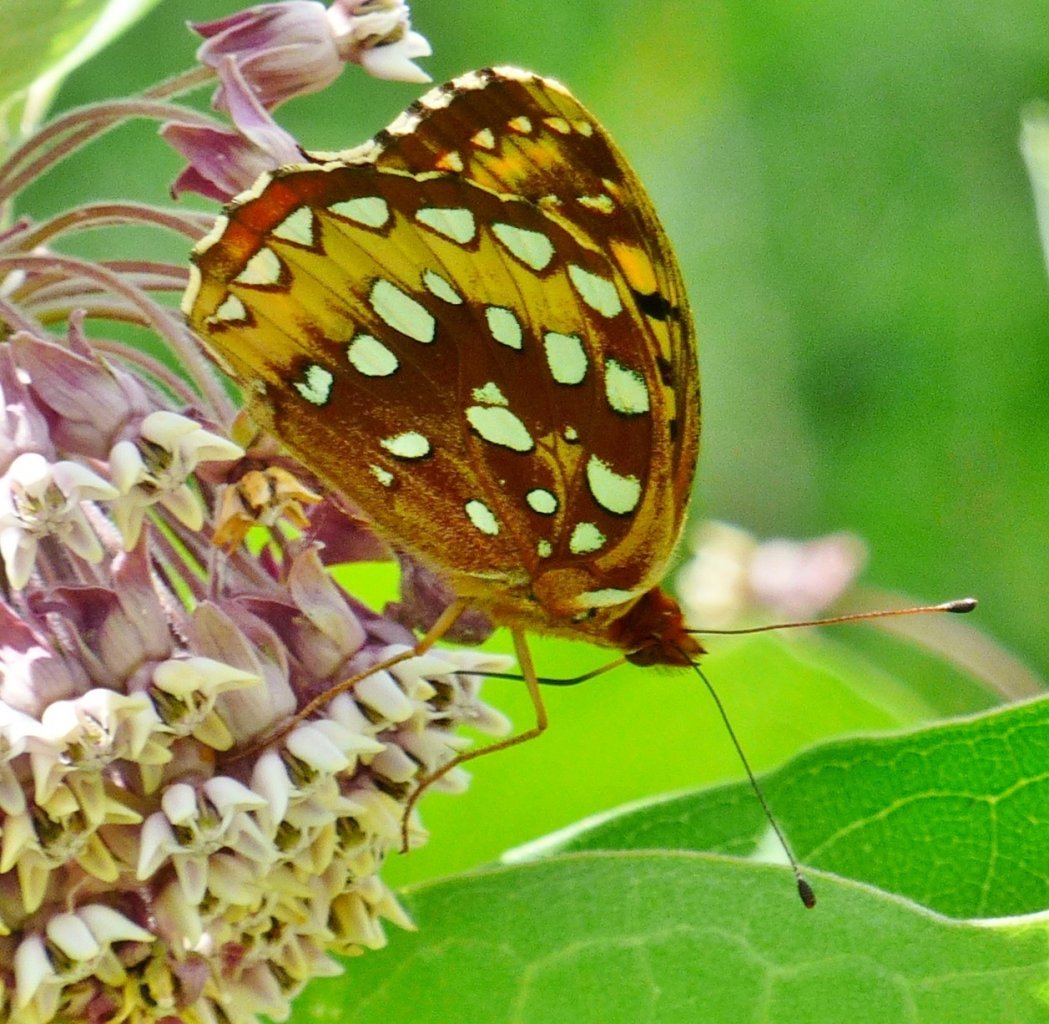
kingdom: Animalia
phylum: Arthropoda
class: Insecta
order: Lepidoptera
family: Nymphalidae
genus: Speyeria
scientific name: Speyeria cybele
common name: Great Spangled Fritillary
